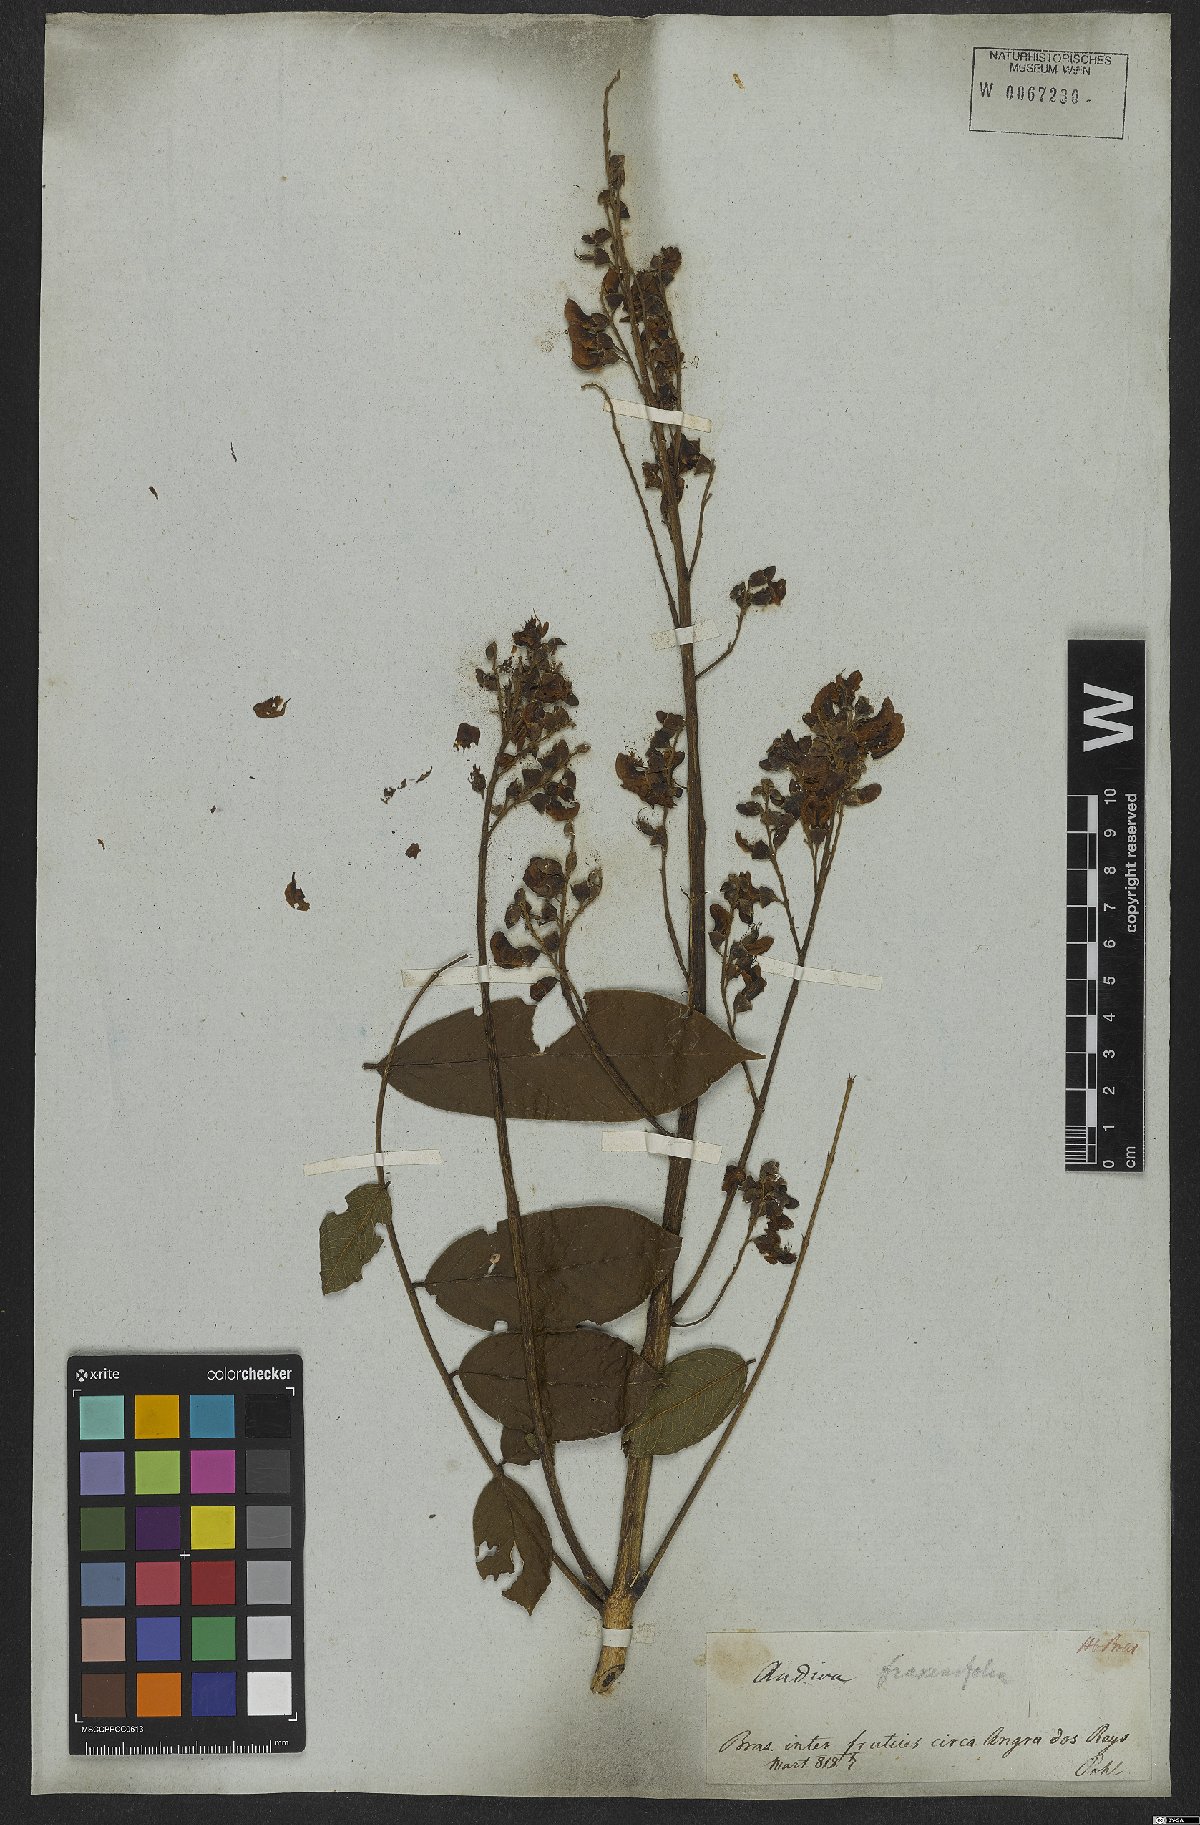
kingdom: Plantae
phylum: Tracheophyta
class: Magnoliopsida
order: Fabales
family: Fabaceae
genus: Andira
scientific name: Andira fraxinifolia
